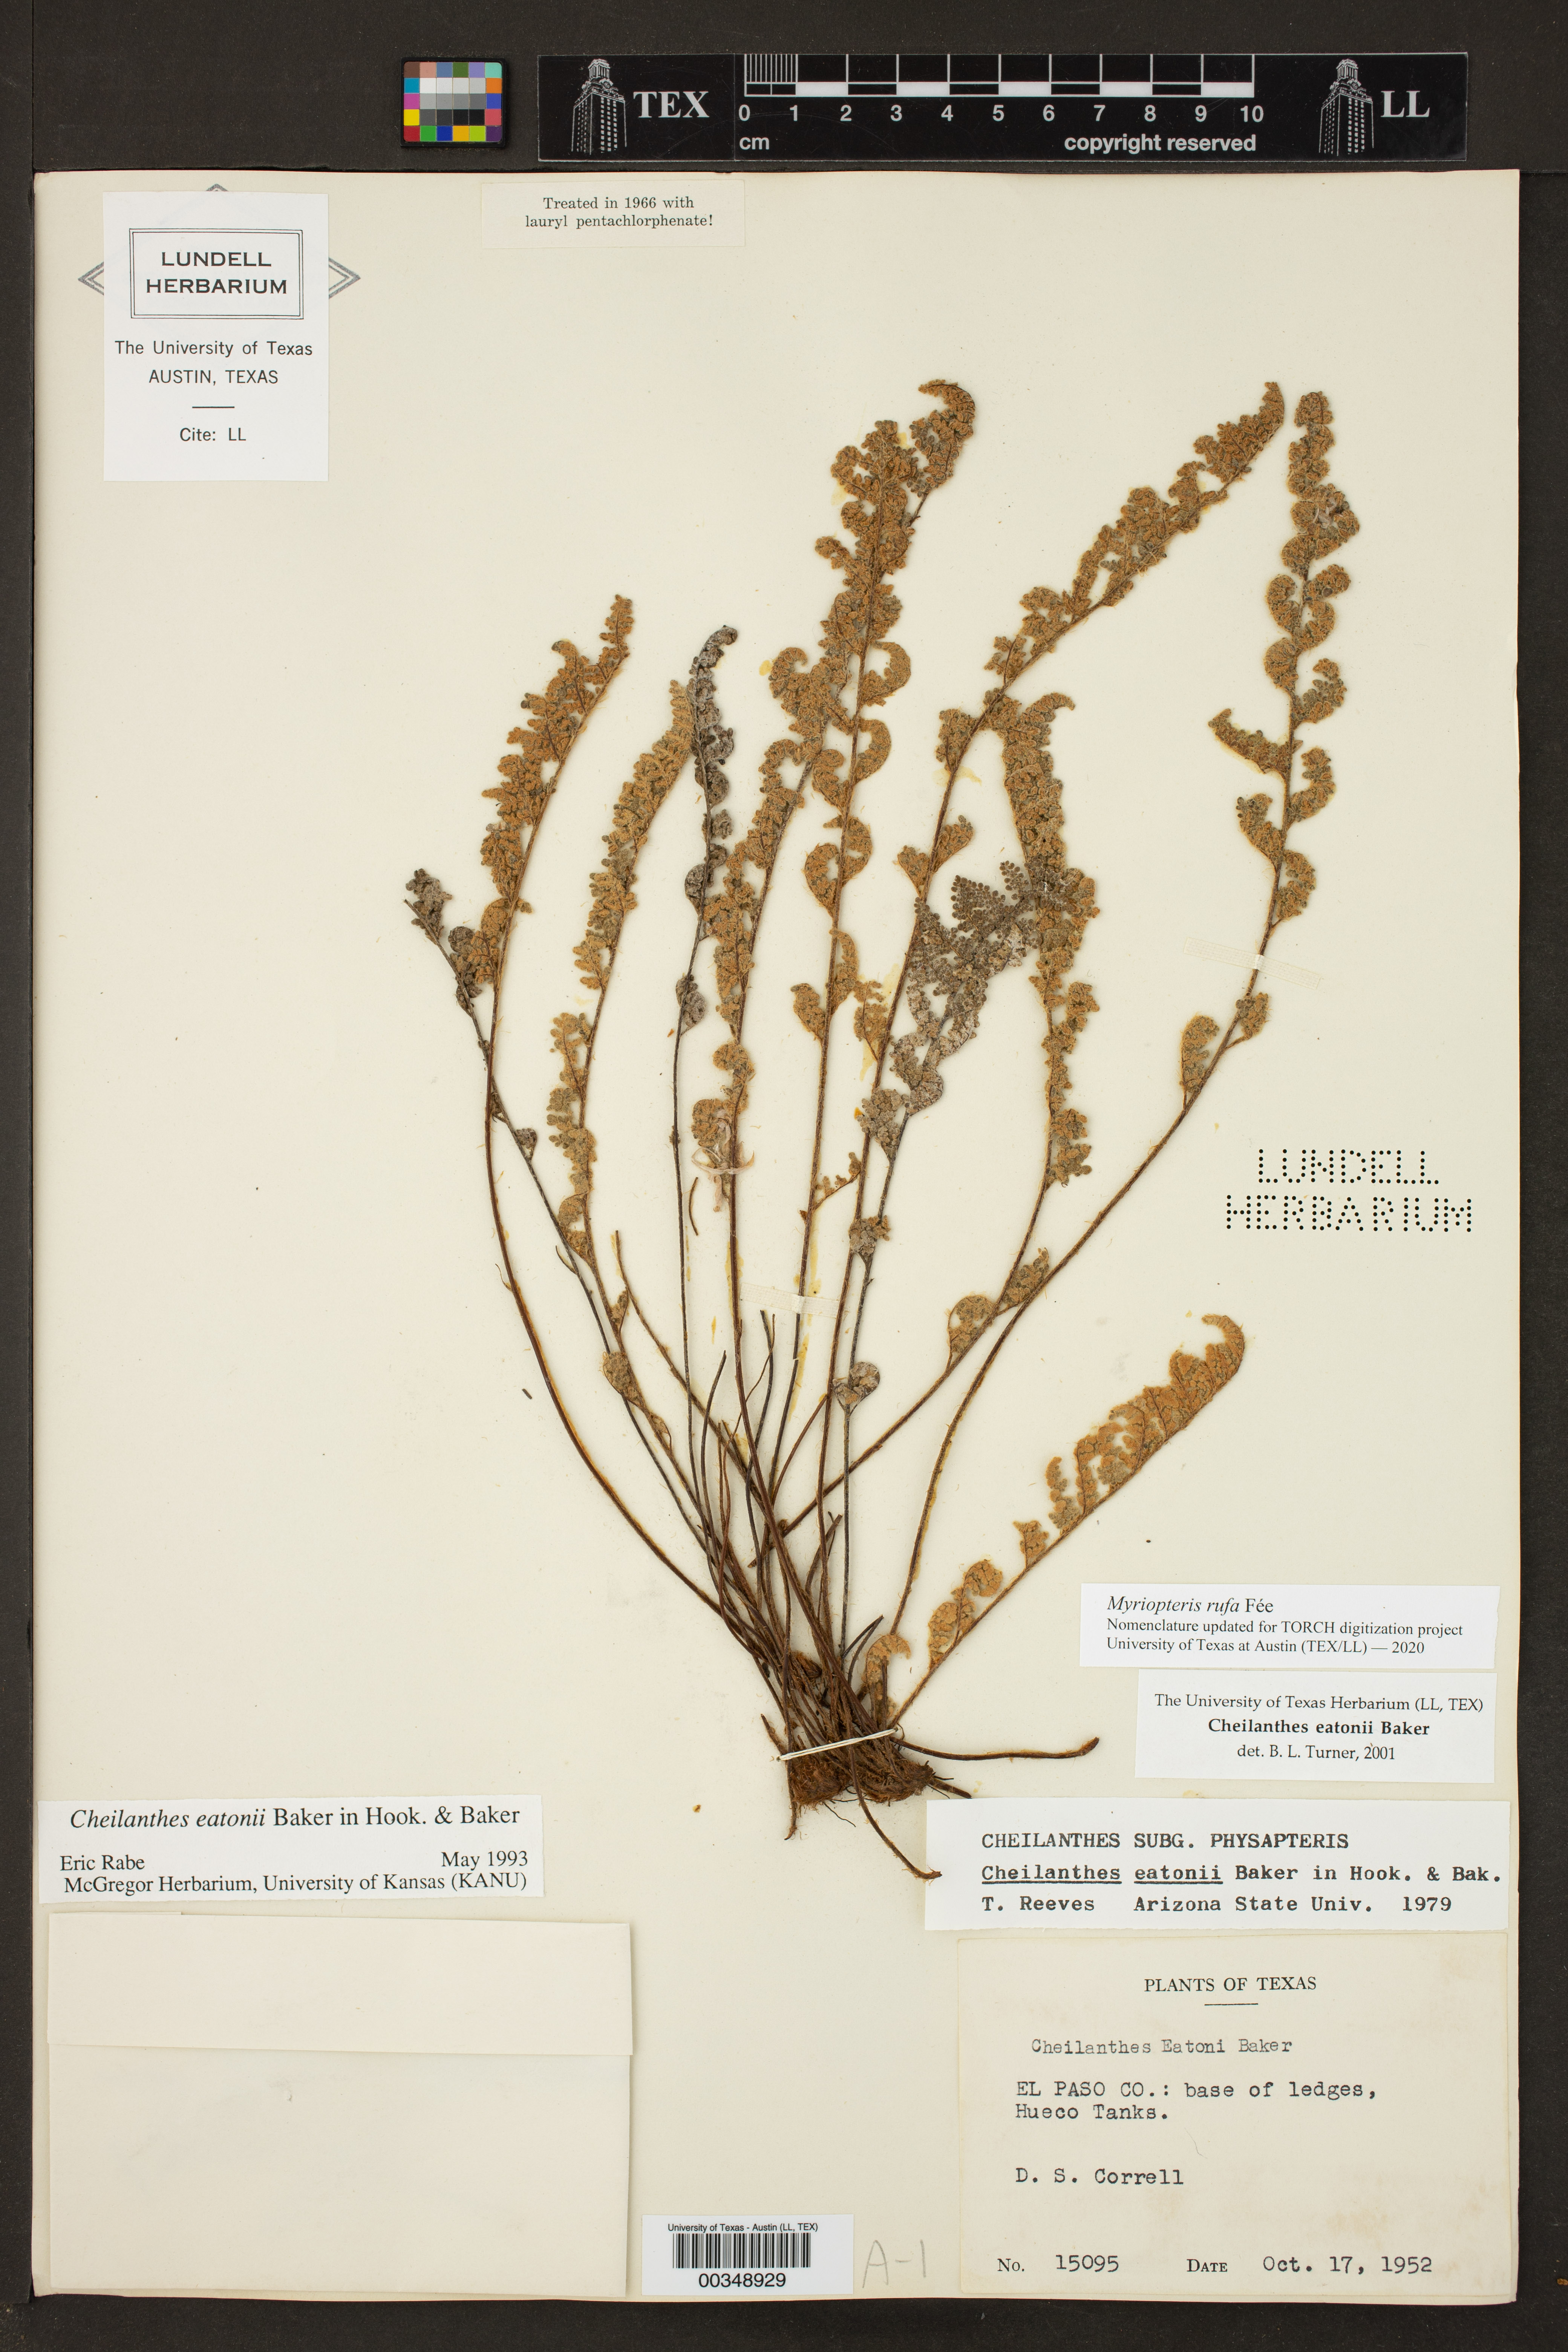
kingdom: Plantae
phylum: Tracheophyta
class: Polypodiopsida
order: Polypodiales
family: Pteridaceae
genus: Myriopteris
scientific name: Myriopteris rufa
